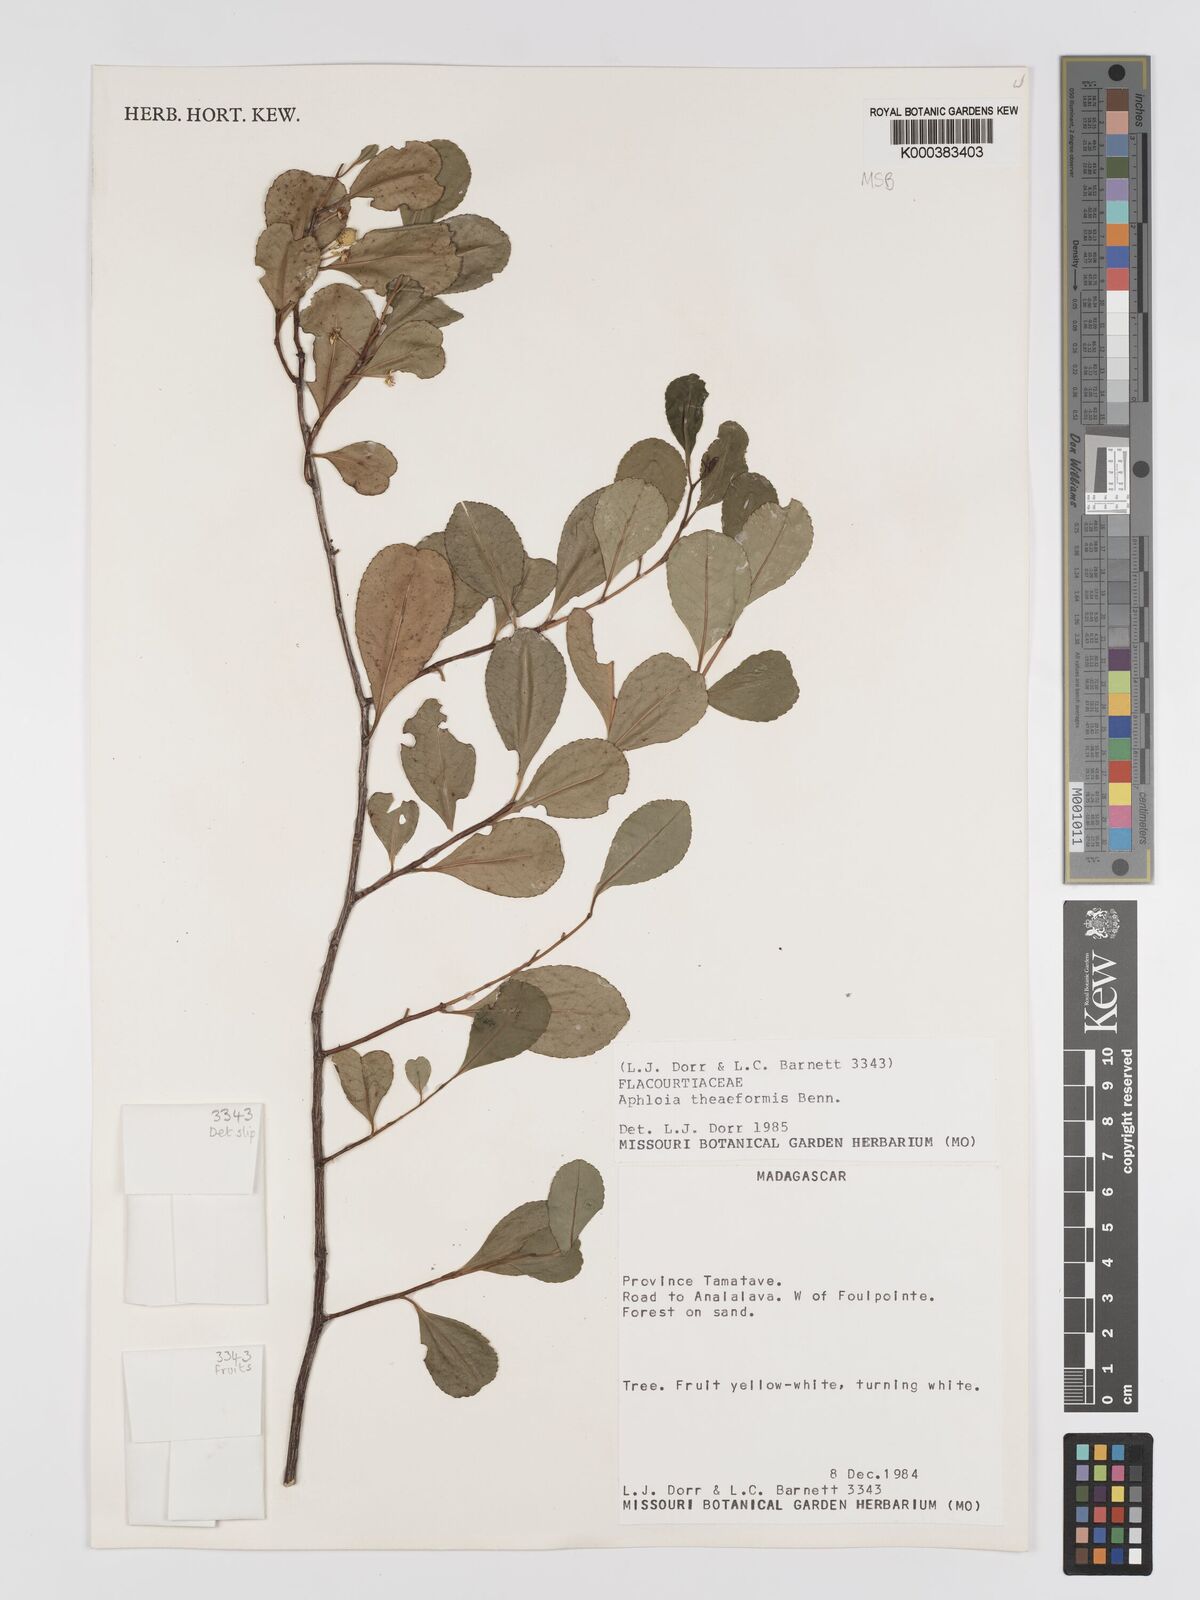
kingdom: Plantae
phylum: Tracheophyta
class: Magnoliopsida
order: Crossosomatales
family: Aphloiaceae
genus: Aphloia
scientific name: Aphloia theiformis
